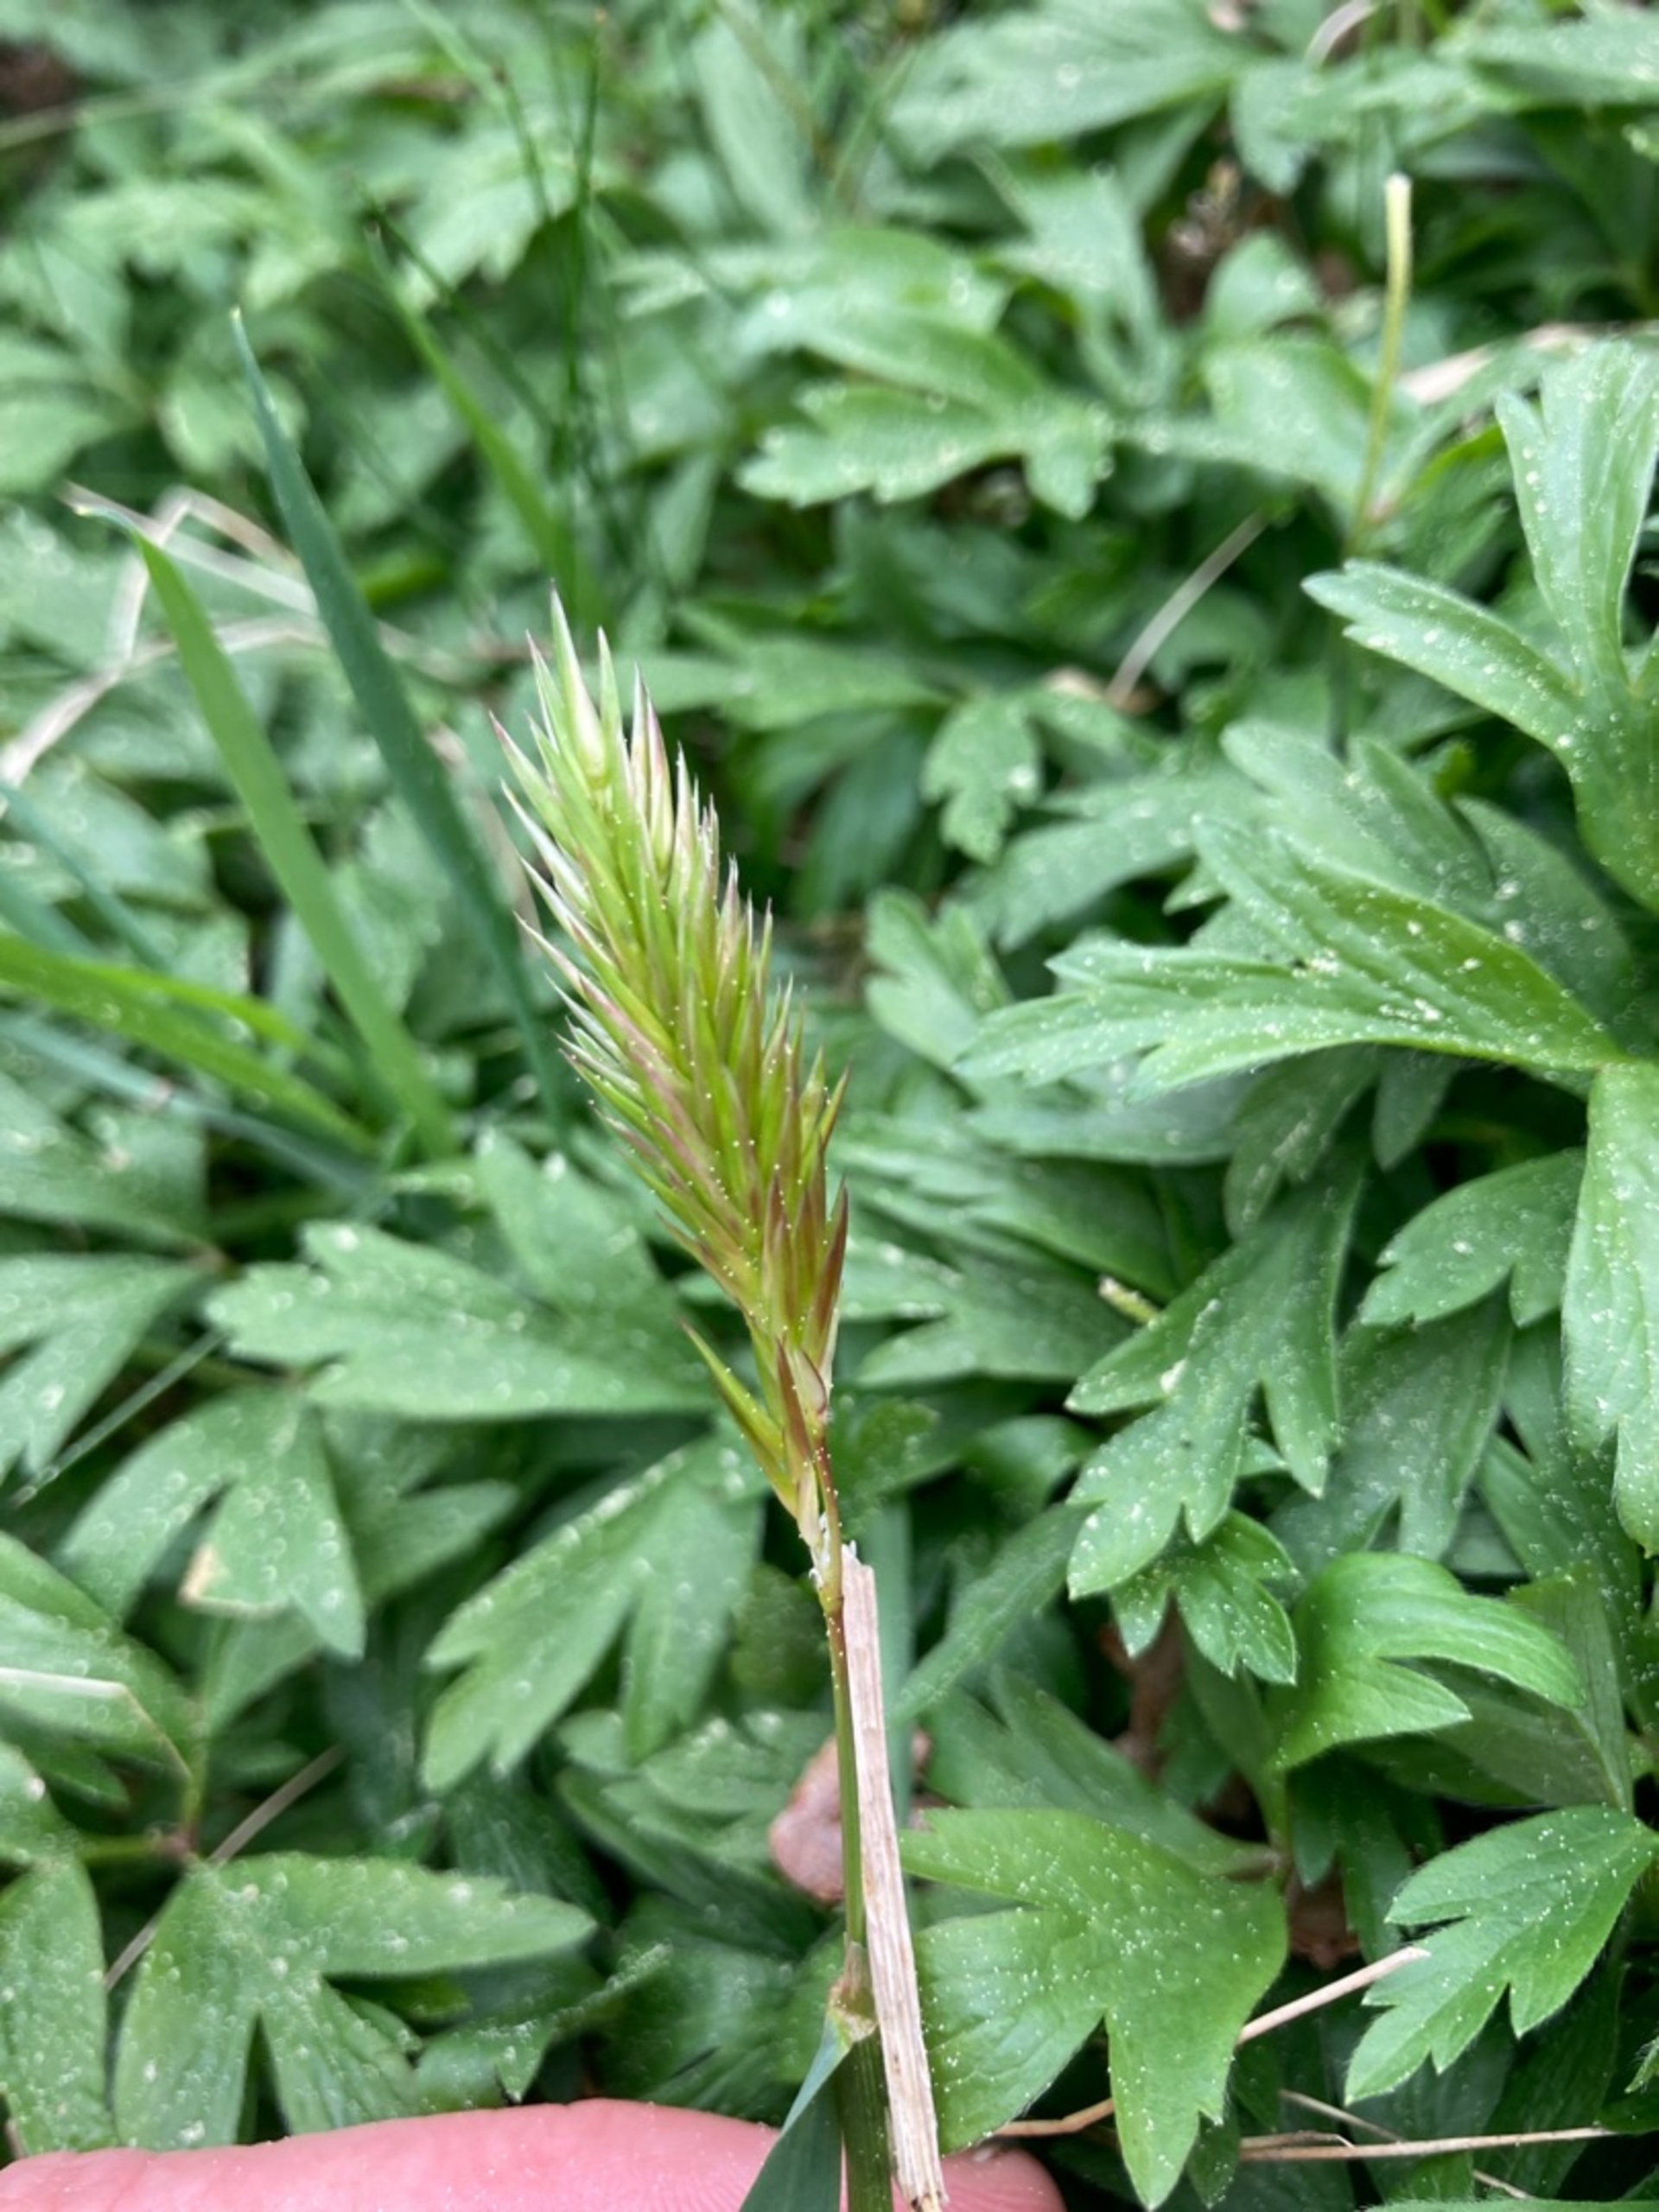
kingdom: Plantae
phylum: Tracheophyta
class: Liliopsida
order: Poales
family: Poaceae
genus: Anthoxanthum
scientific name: Anthoxanthum odoratum
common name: Vellugtende gulaks
